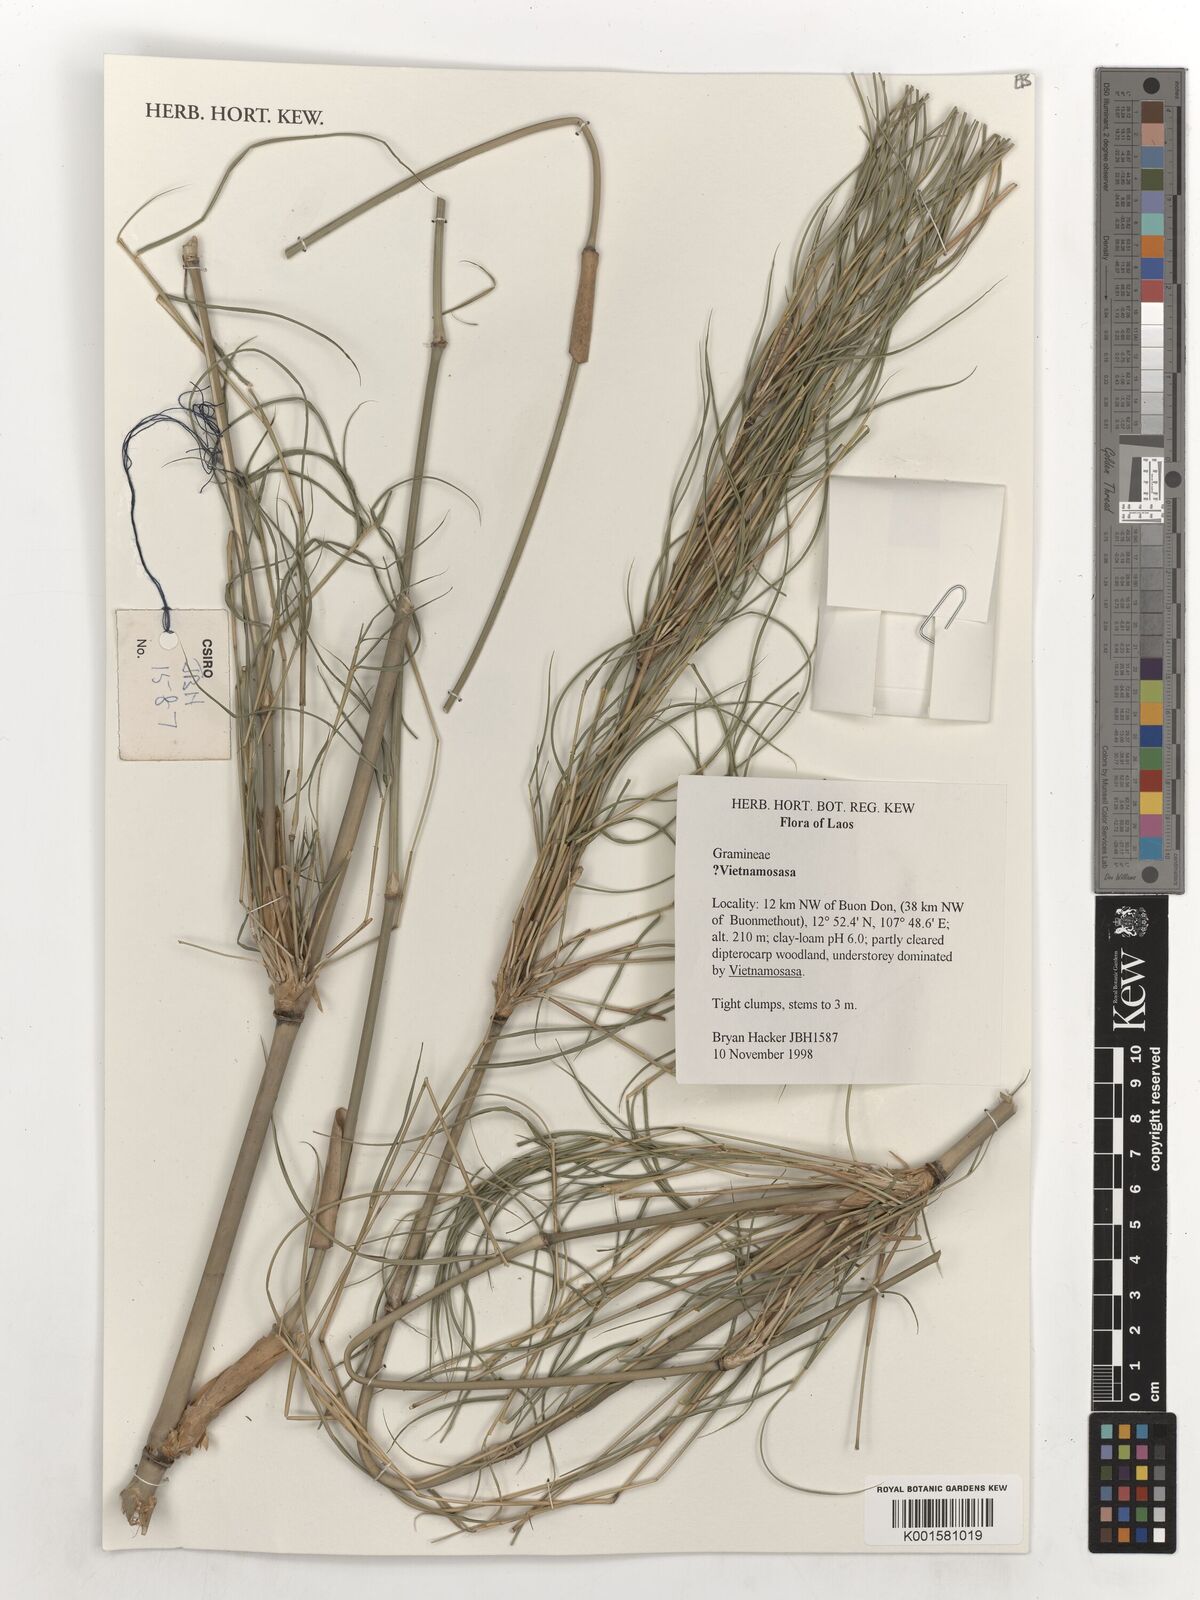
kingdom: Plantae
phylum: Tracheophyta
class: Liliopsida
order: Poales
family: Poaceae
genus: Vietnamosasa
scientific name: Vietnamosasa
